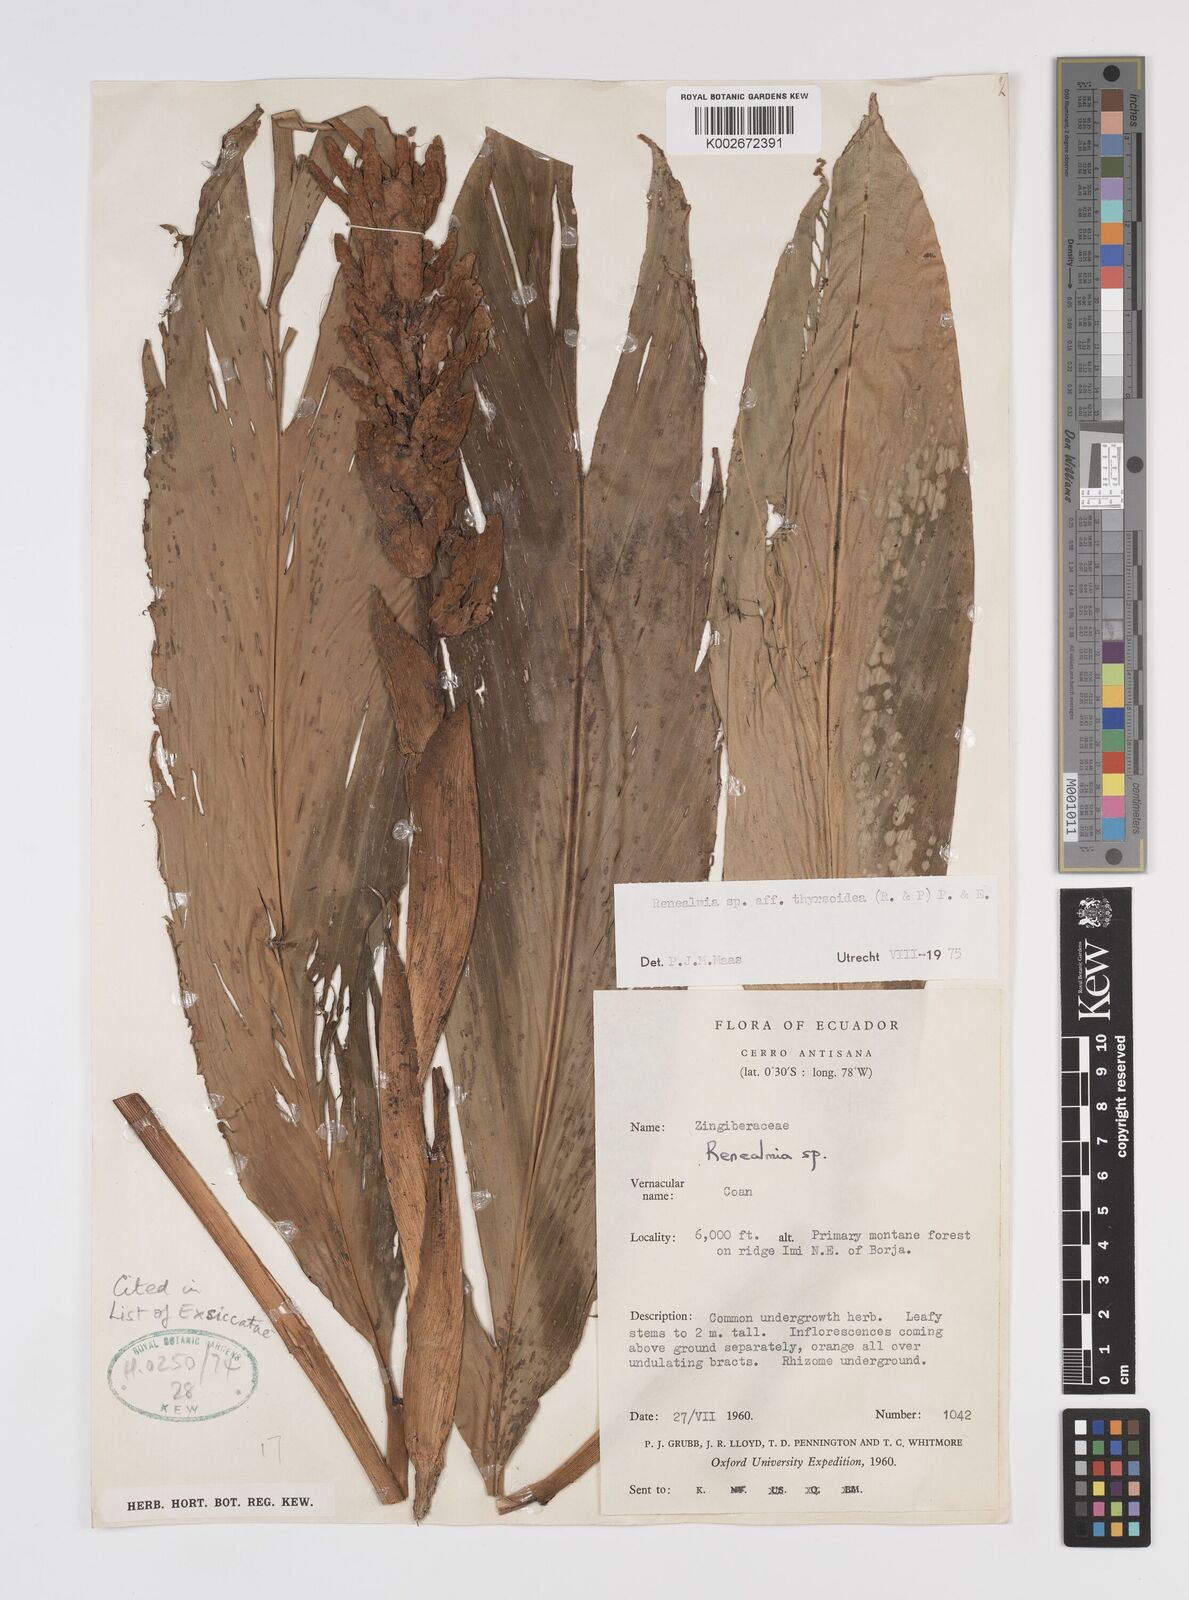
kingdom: Plantae
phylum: Tracheophyta
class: Liliopsida
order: Zingiberales
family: Zingiberaceae
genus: Renealmia
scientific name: Renealmia thyrsoidea
